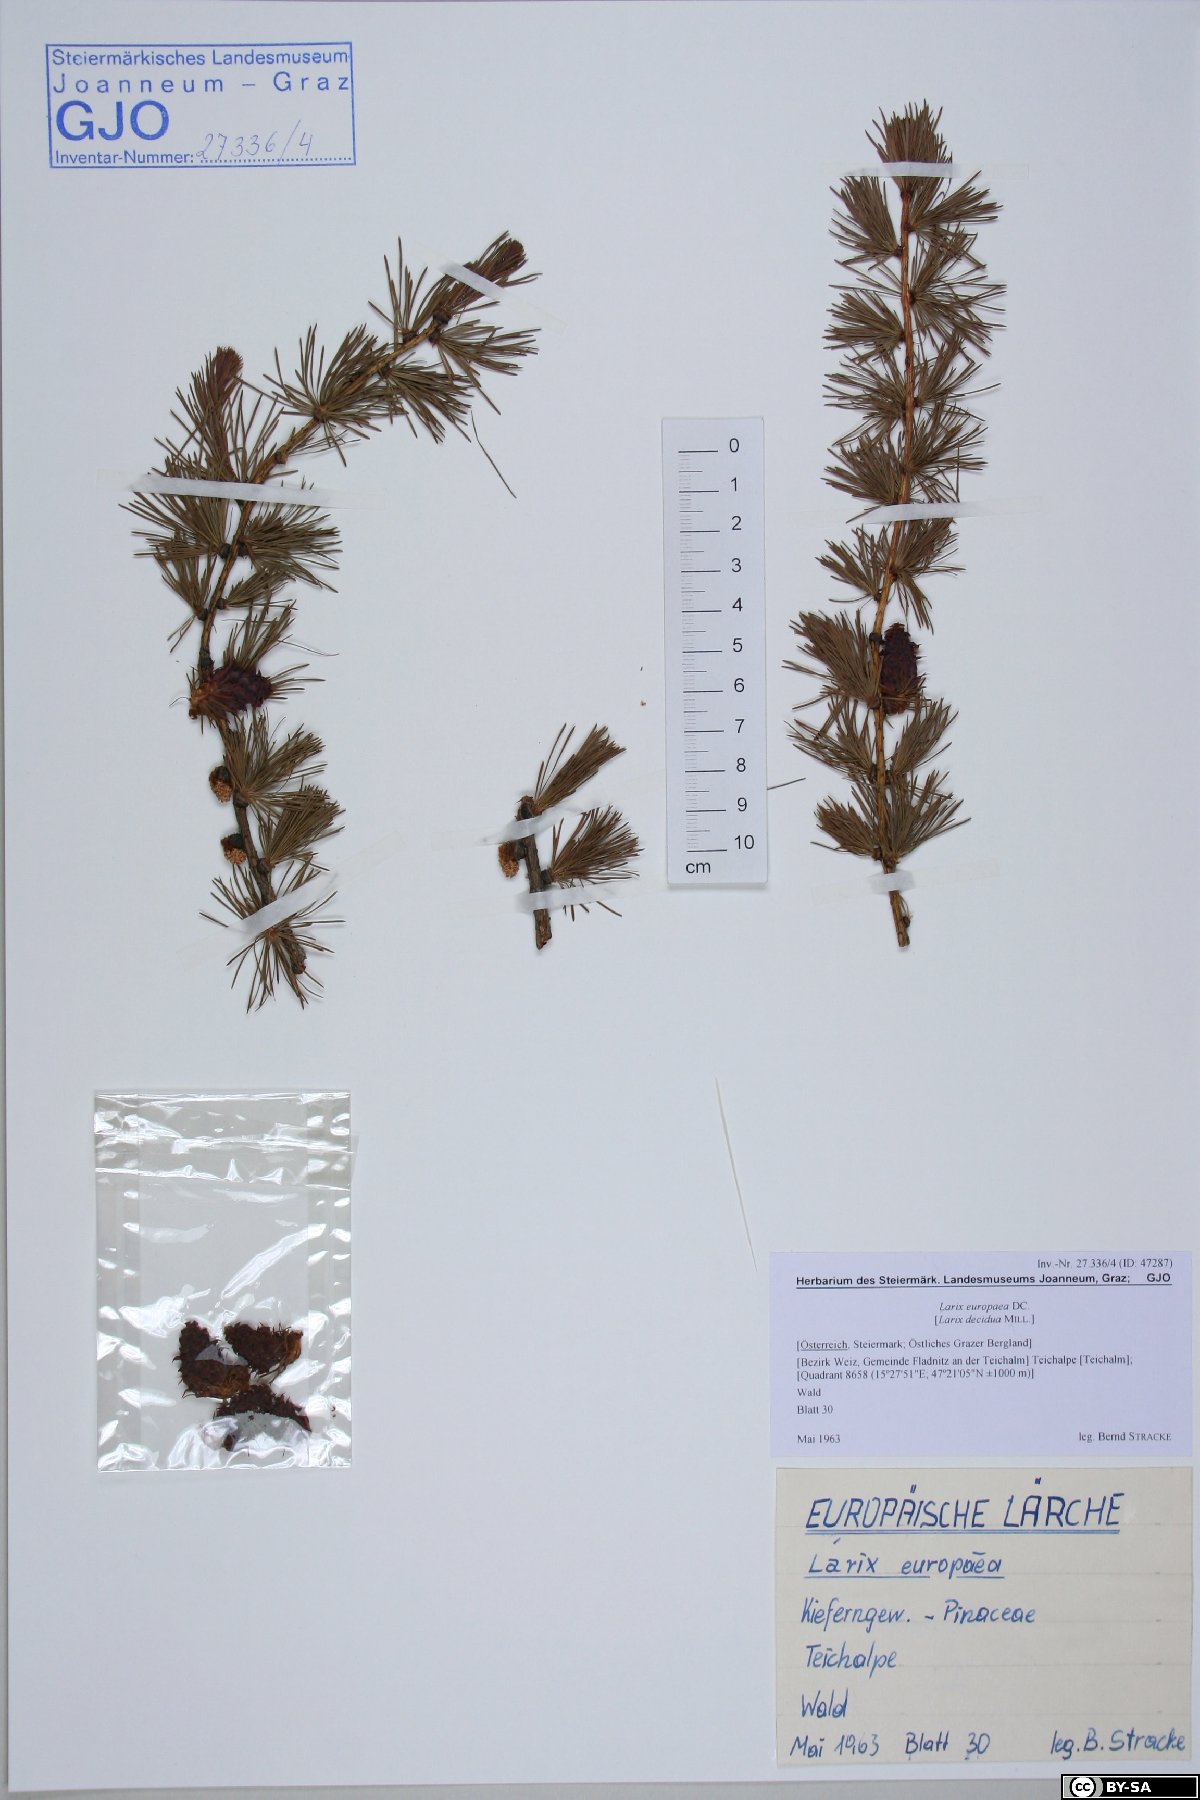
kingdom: Plantae
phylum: Tracheophyta
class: Pinopsida
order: Pinales
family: Pinaceae
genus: Larix
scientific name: Larix decidua
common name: European larch
